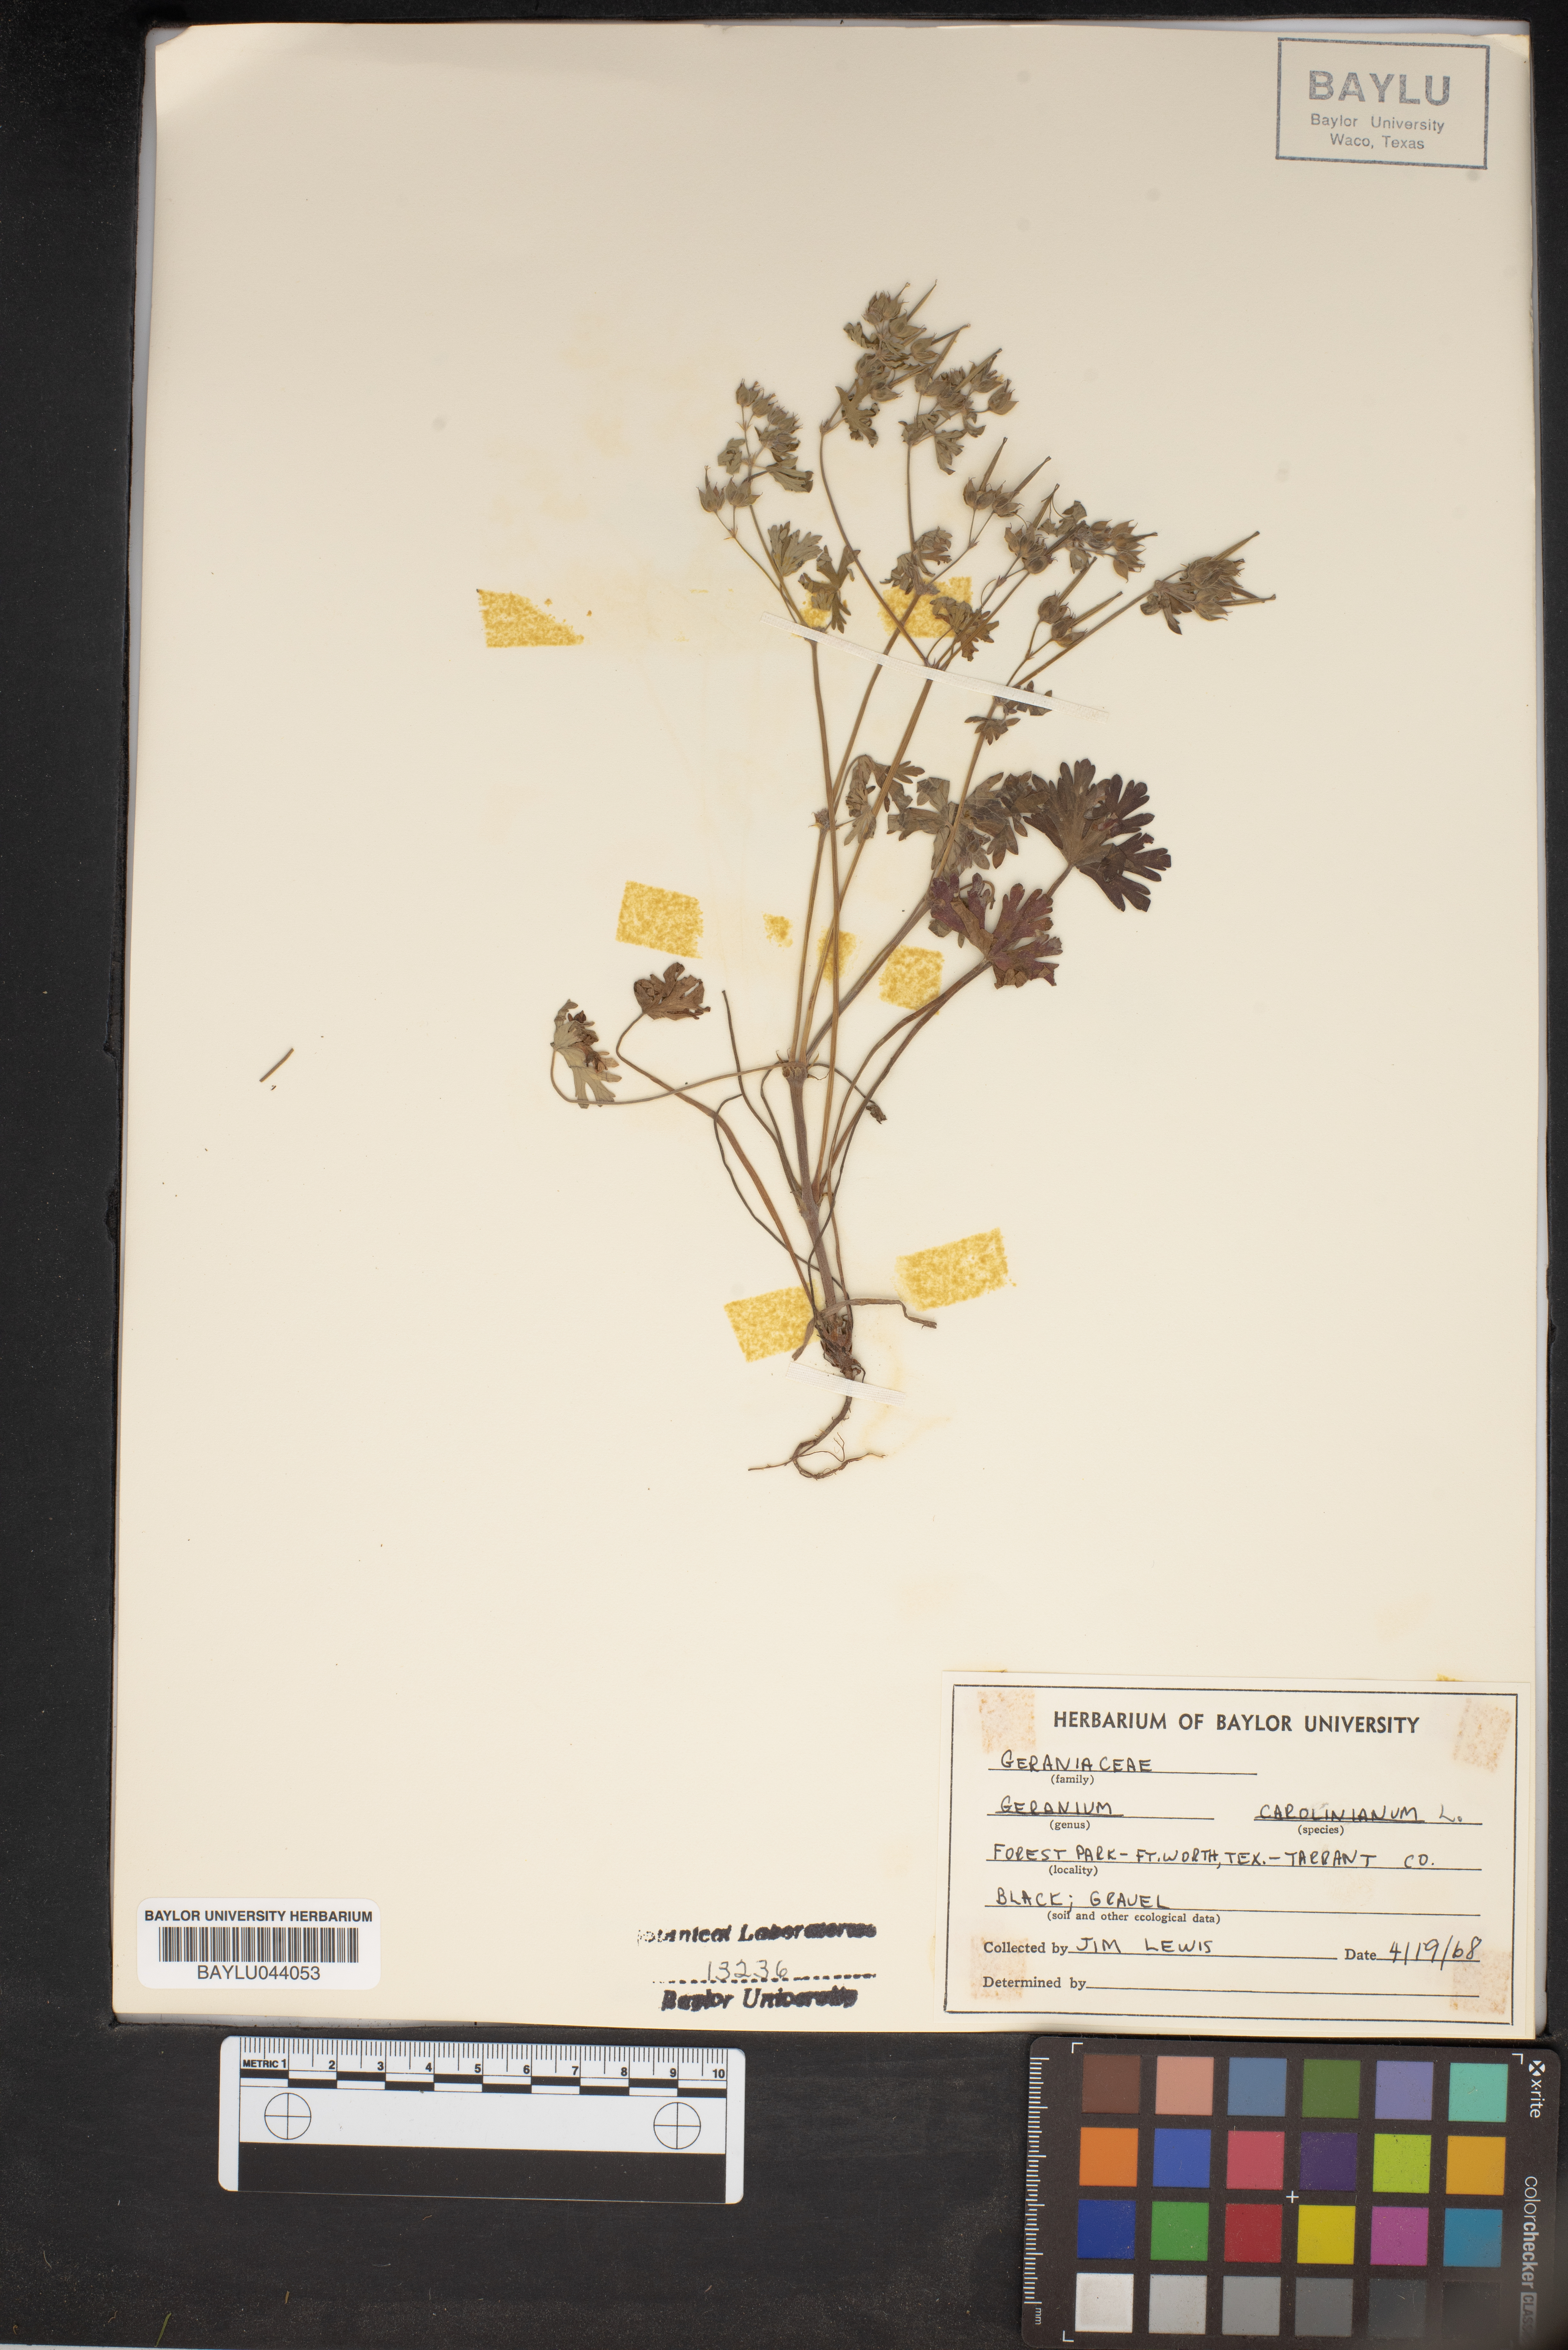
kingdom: Plantae
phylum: Tracheophyta
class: Magnoliopsida
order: Geraniales
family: Geraniaceae
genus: Geranium
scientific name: Geranium carolinianum
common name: Carolina crane's-bill
